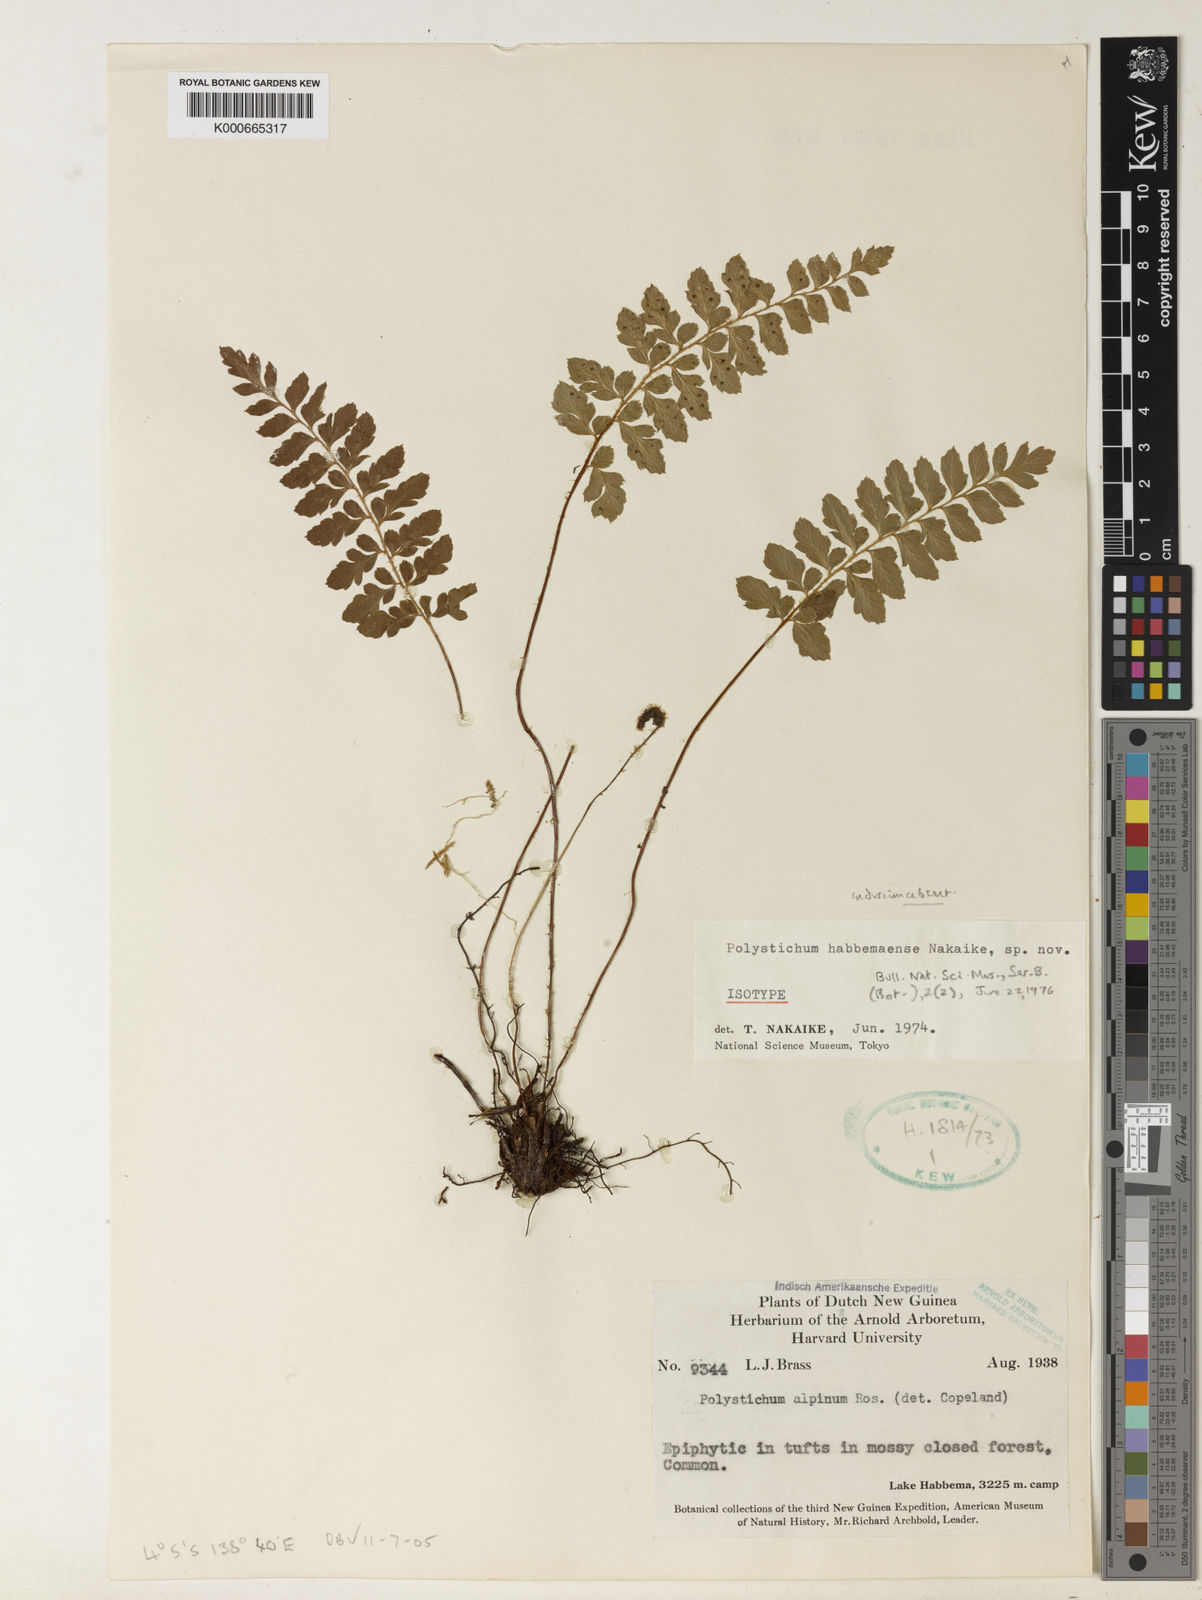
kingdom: Plantae
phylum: Tracheophyta
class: Polypodiopsida
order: Polypodiales
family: Dryopteridaceae
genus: Polystichum
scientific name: Polystichum
